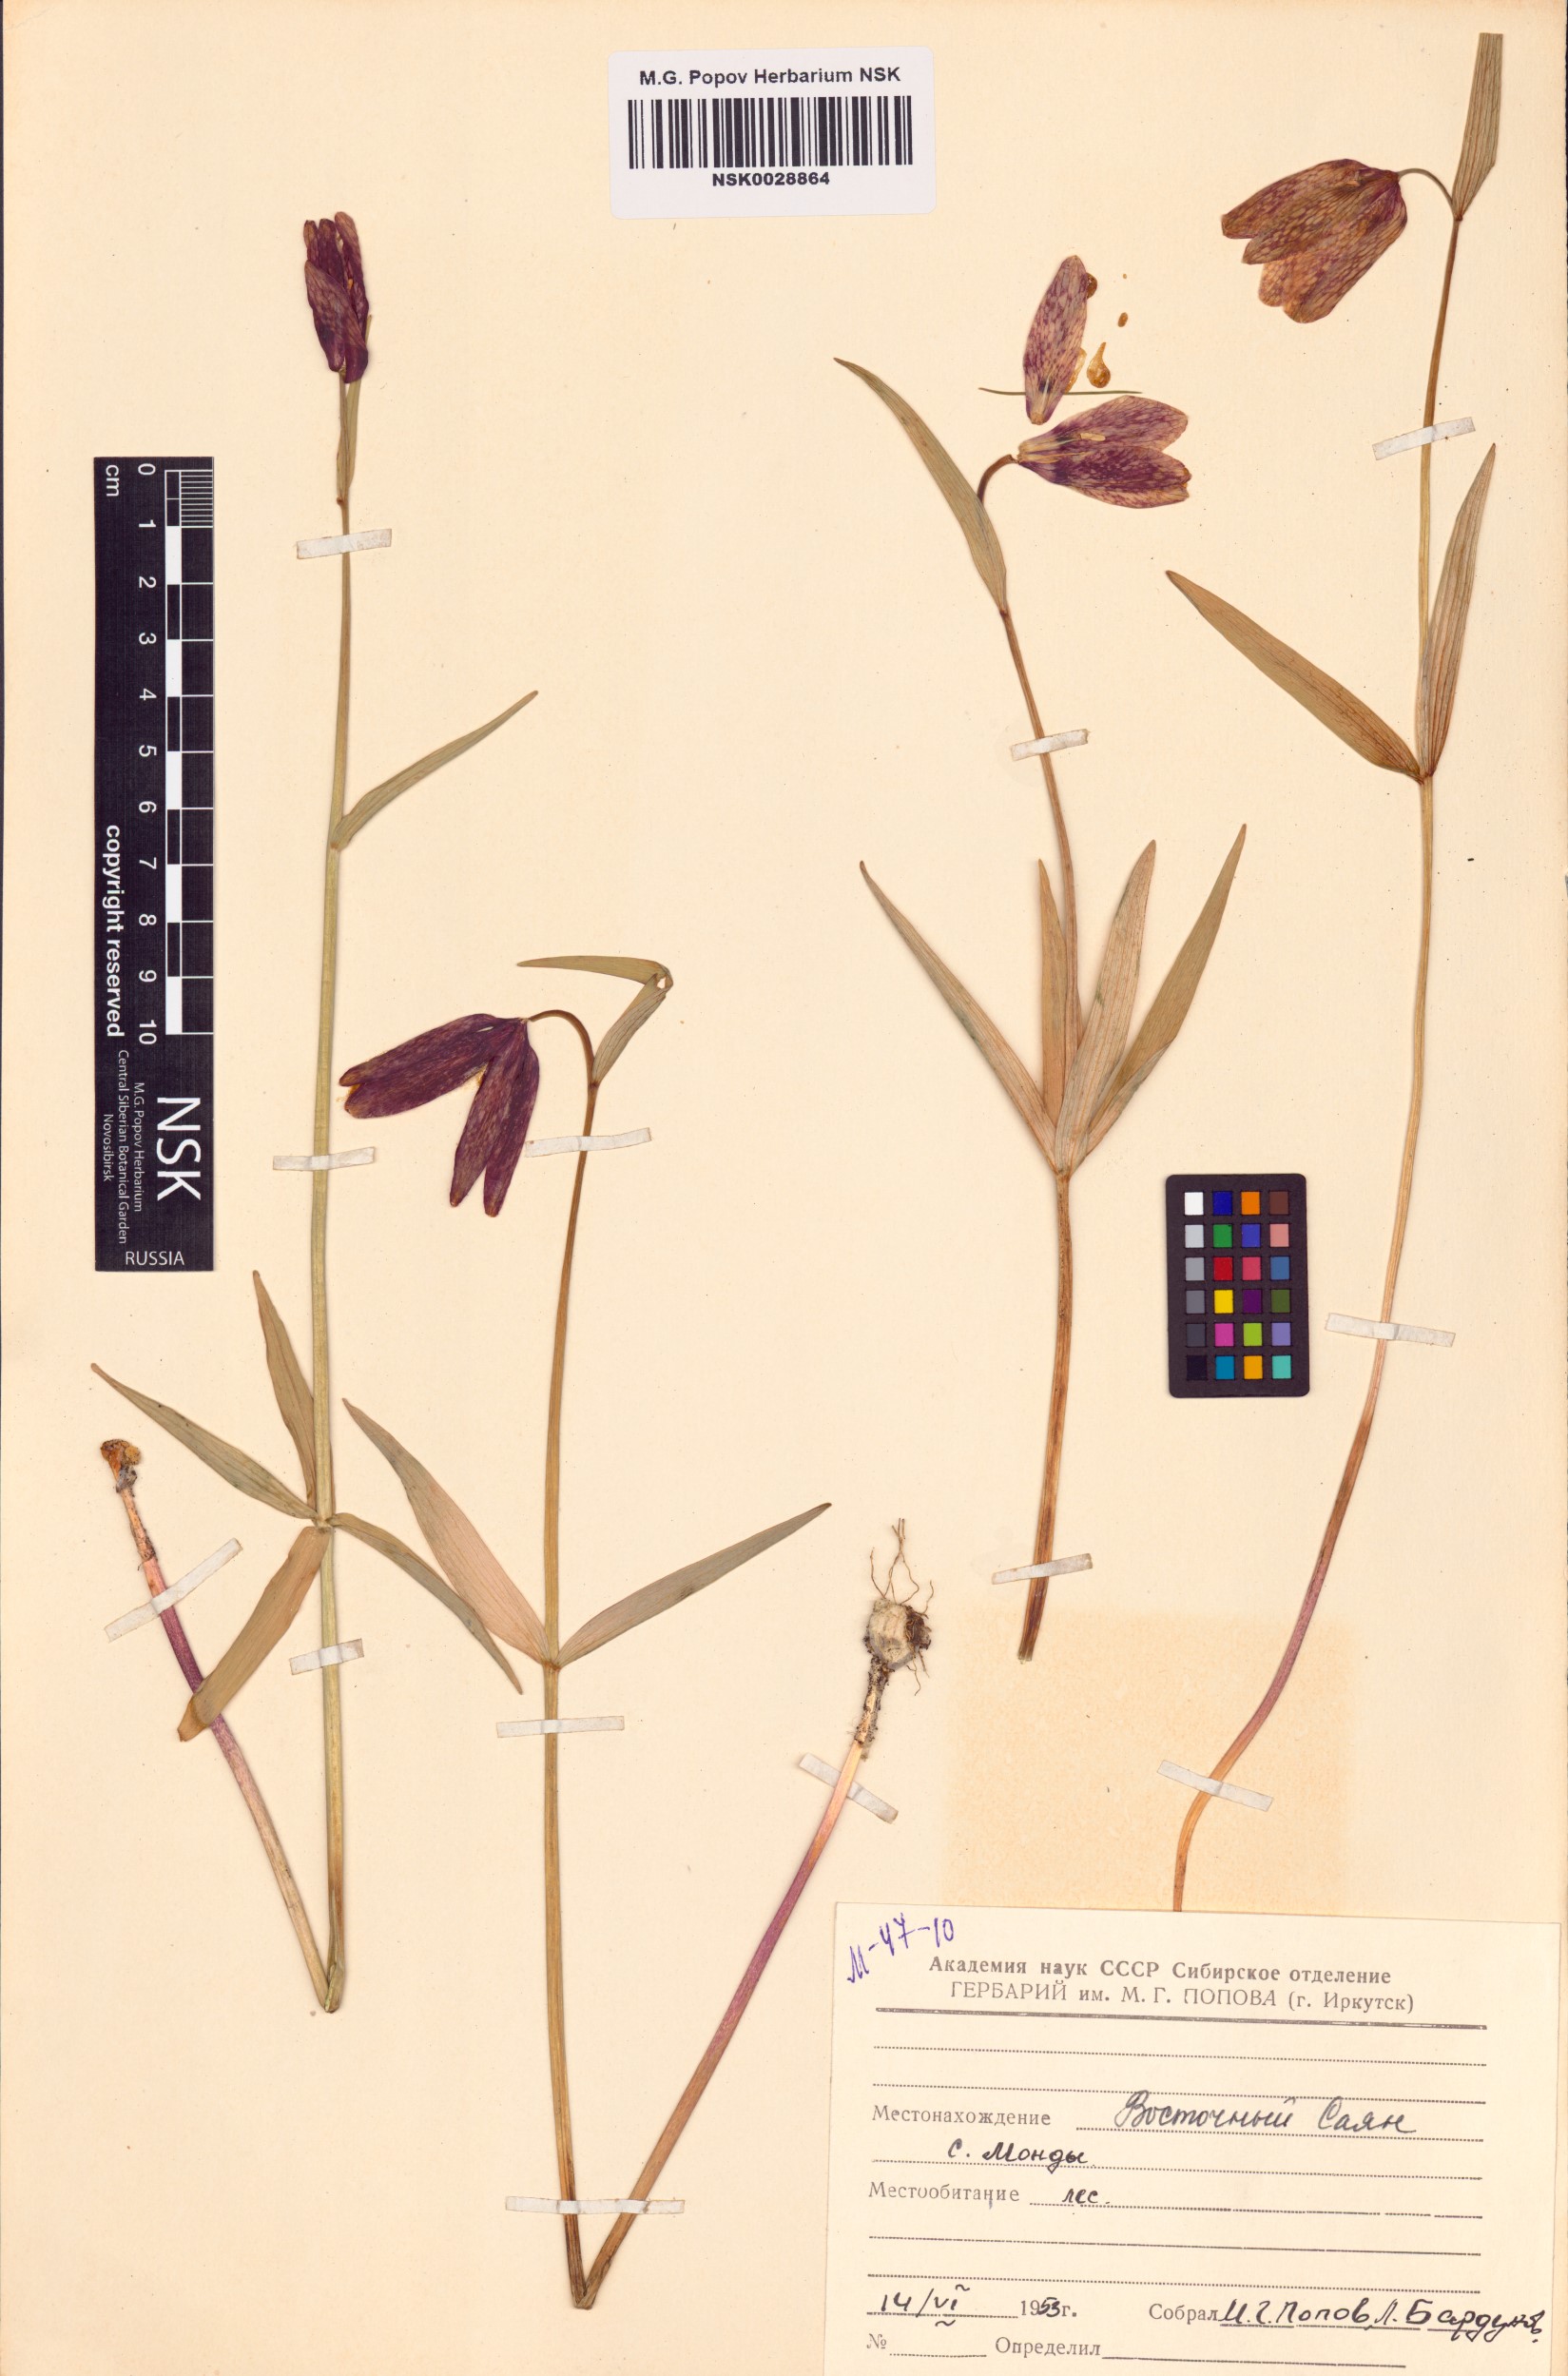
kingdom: Plantae
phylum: Tracheophyta
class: Liliopsida
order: Liliales
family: Liliaceae
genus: Fritillaria
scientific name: Fritillaria dagana
